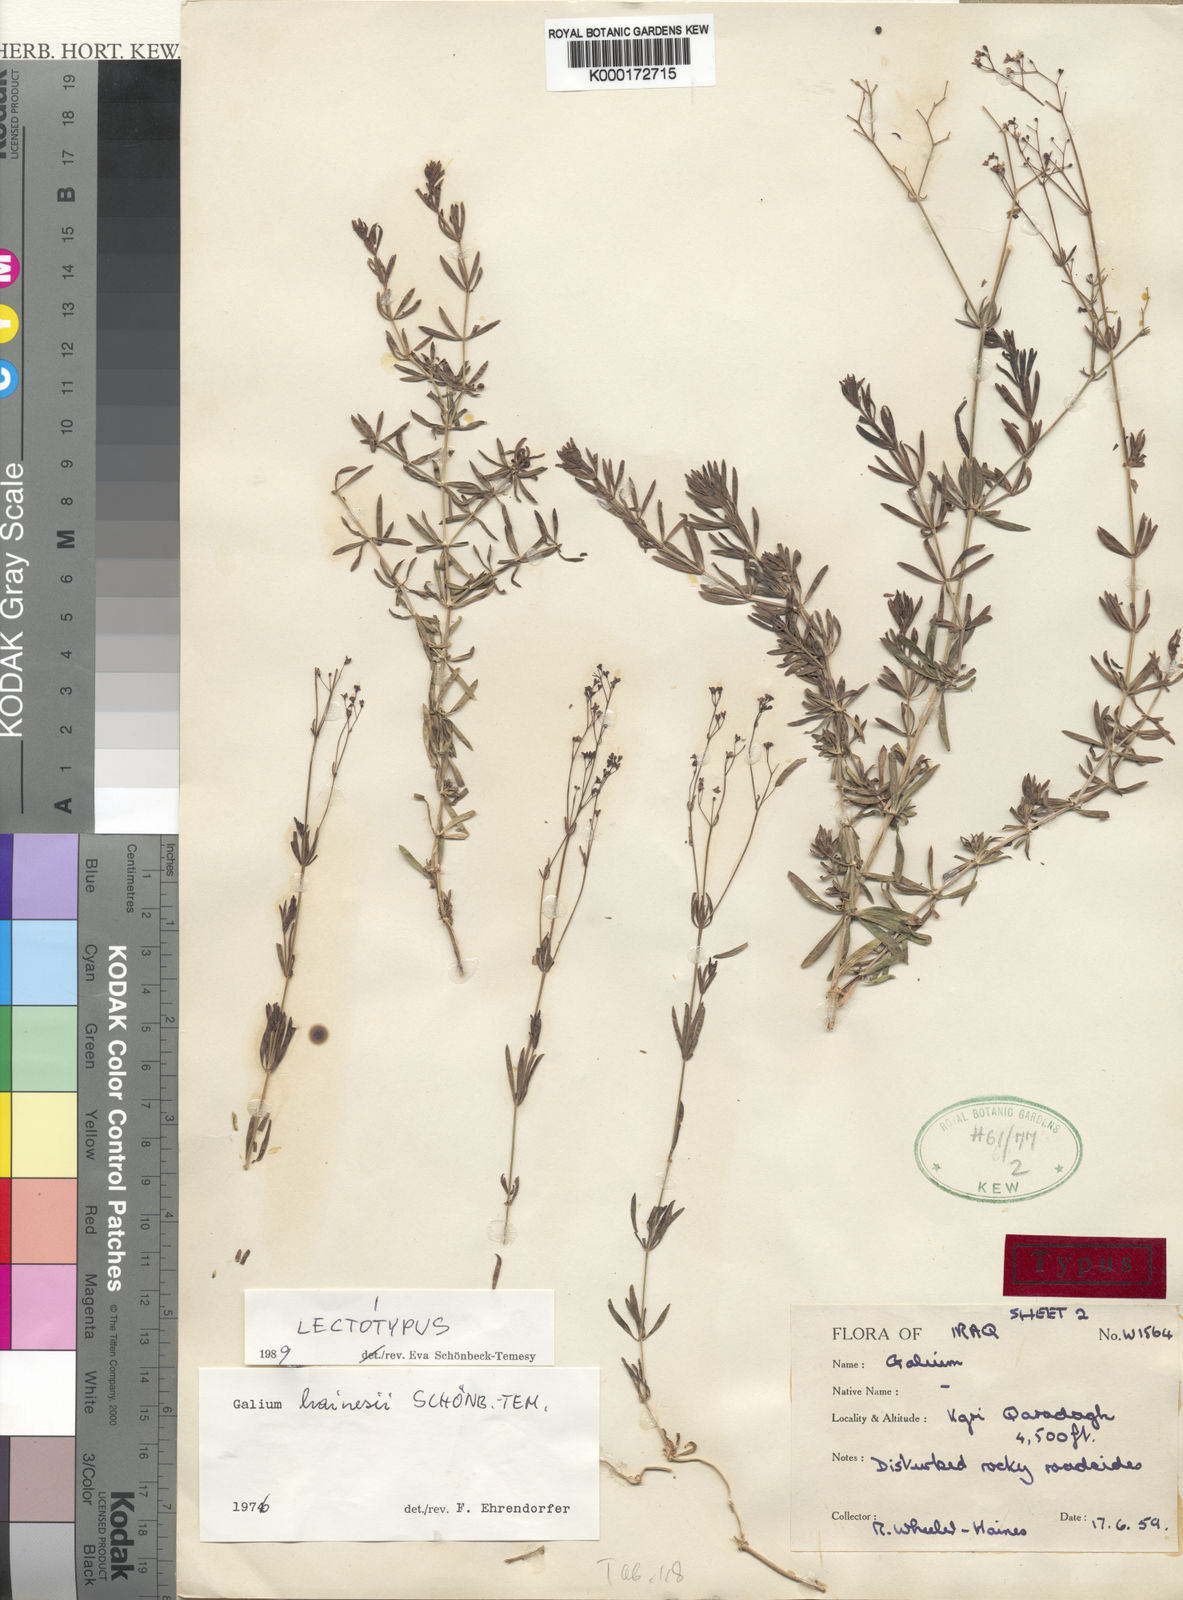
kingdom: Plantae
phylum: Tracheophyta
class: Magnoliopsida
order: Gentianales
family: Rubiaceae
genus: Galium
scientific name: Galium
